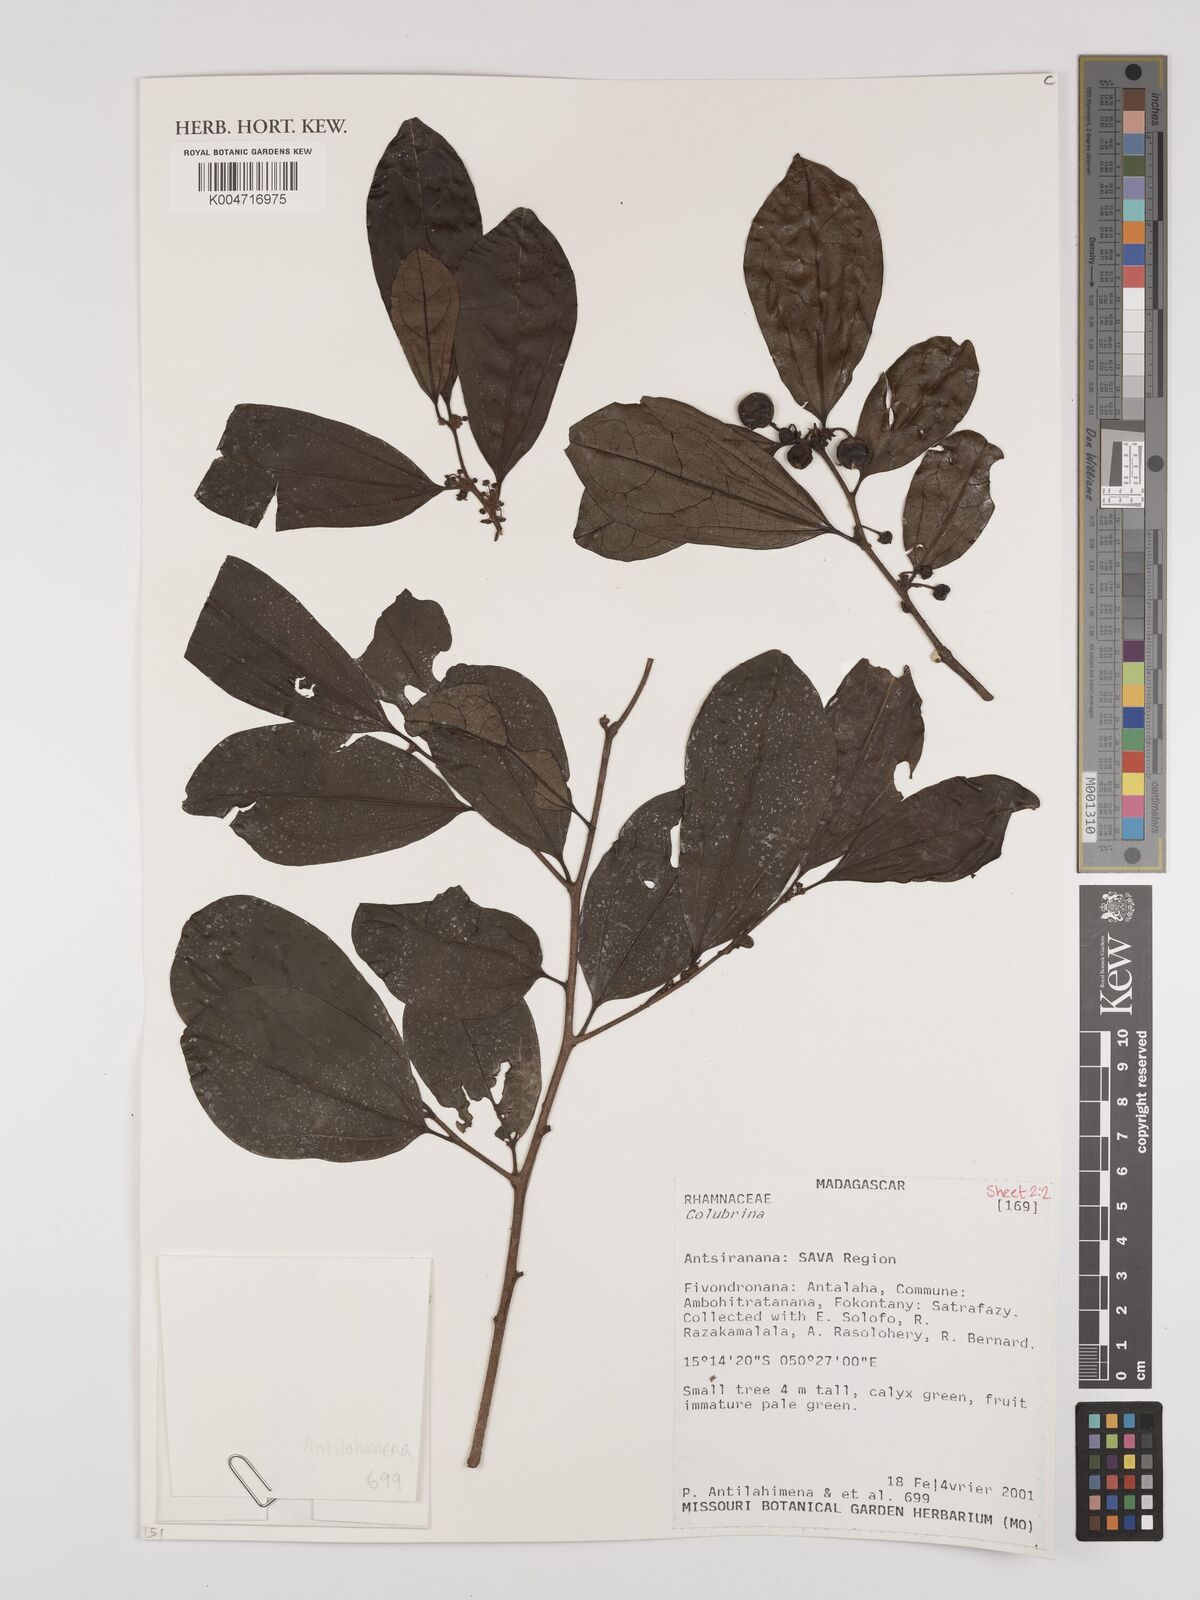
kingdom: Plantae
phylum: Tracheophyta
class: Magnoliopsida
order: Rosales
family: Rhamnaceae
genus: Colubrina
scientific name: Colubrina
